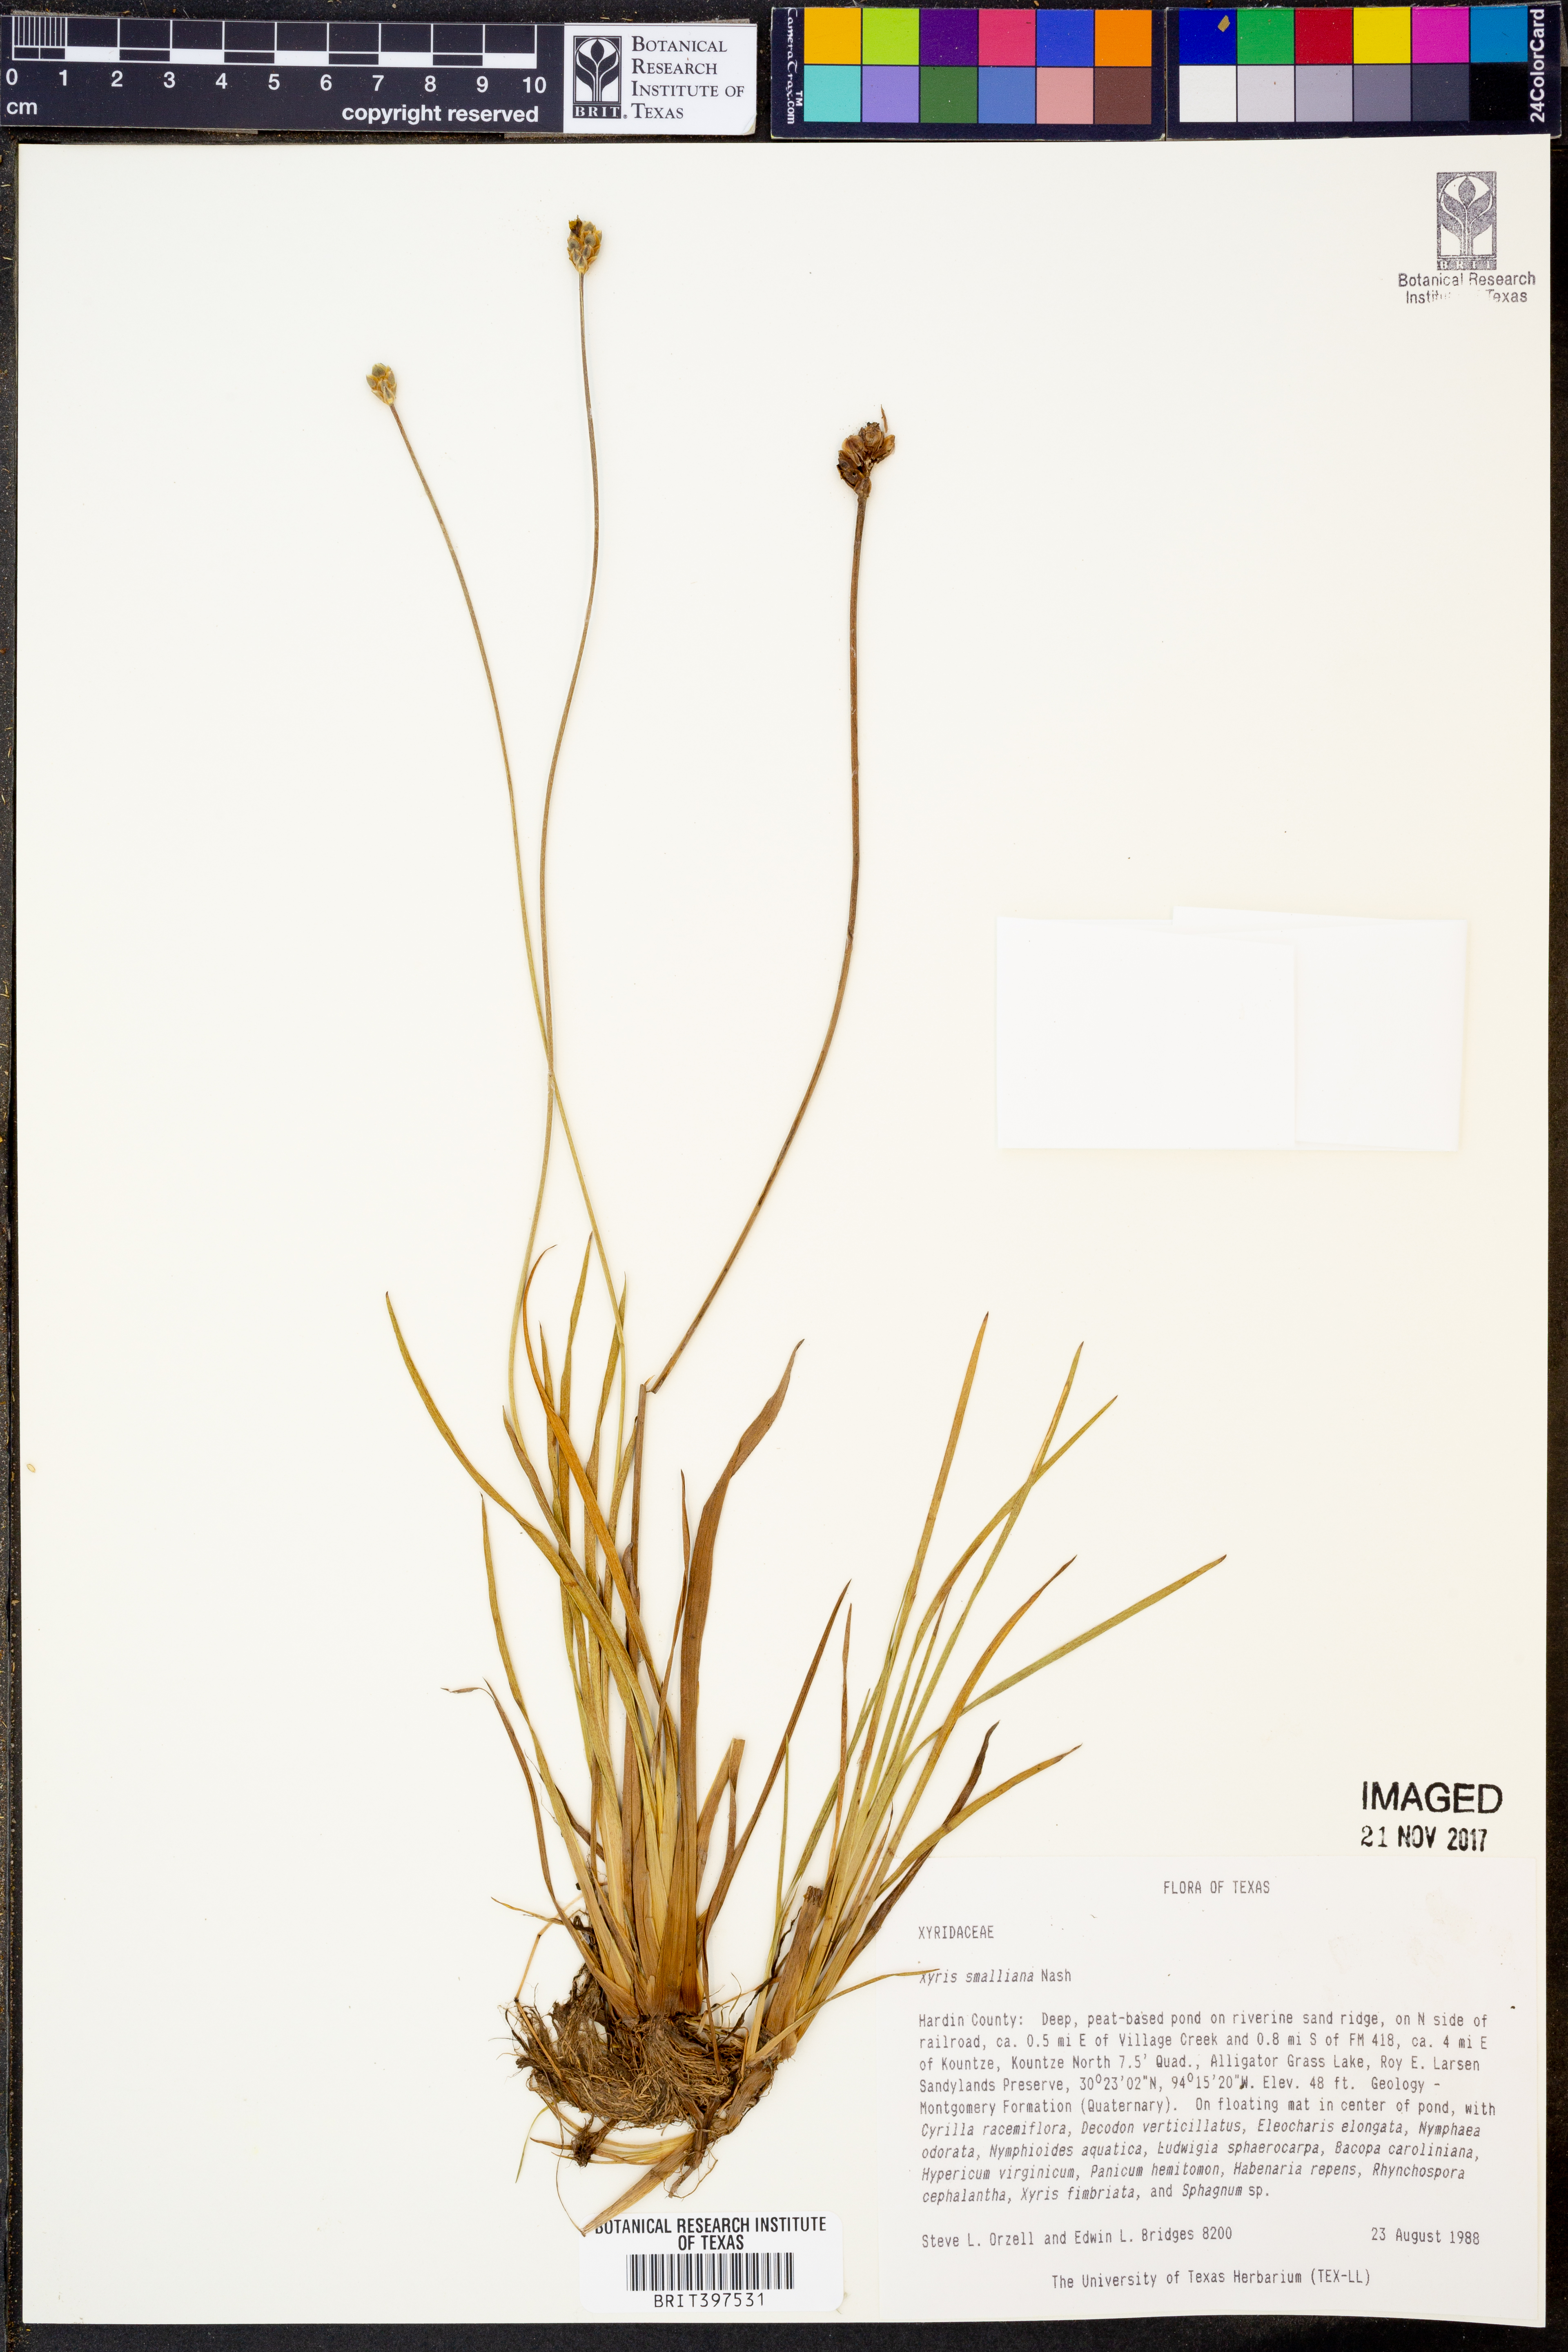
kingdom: Plantae
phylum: Tracheophyta
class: Liliopsida
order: Poales
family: Xyridaceae
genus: Xyris
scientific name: Xyris smalliana
